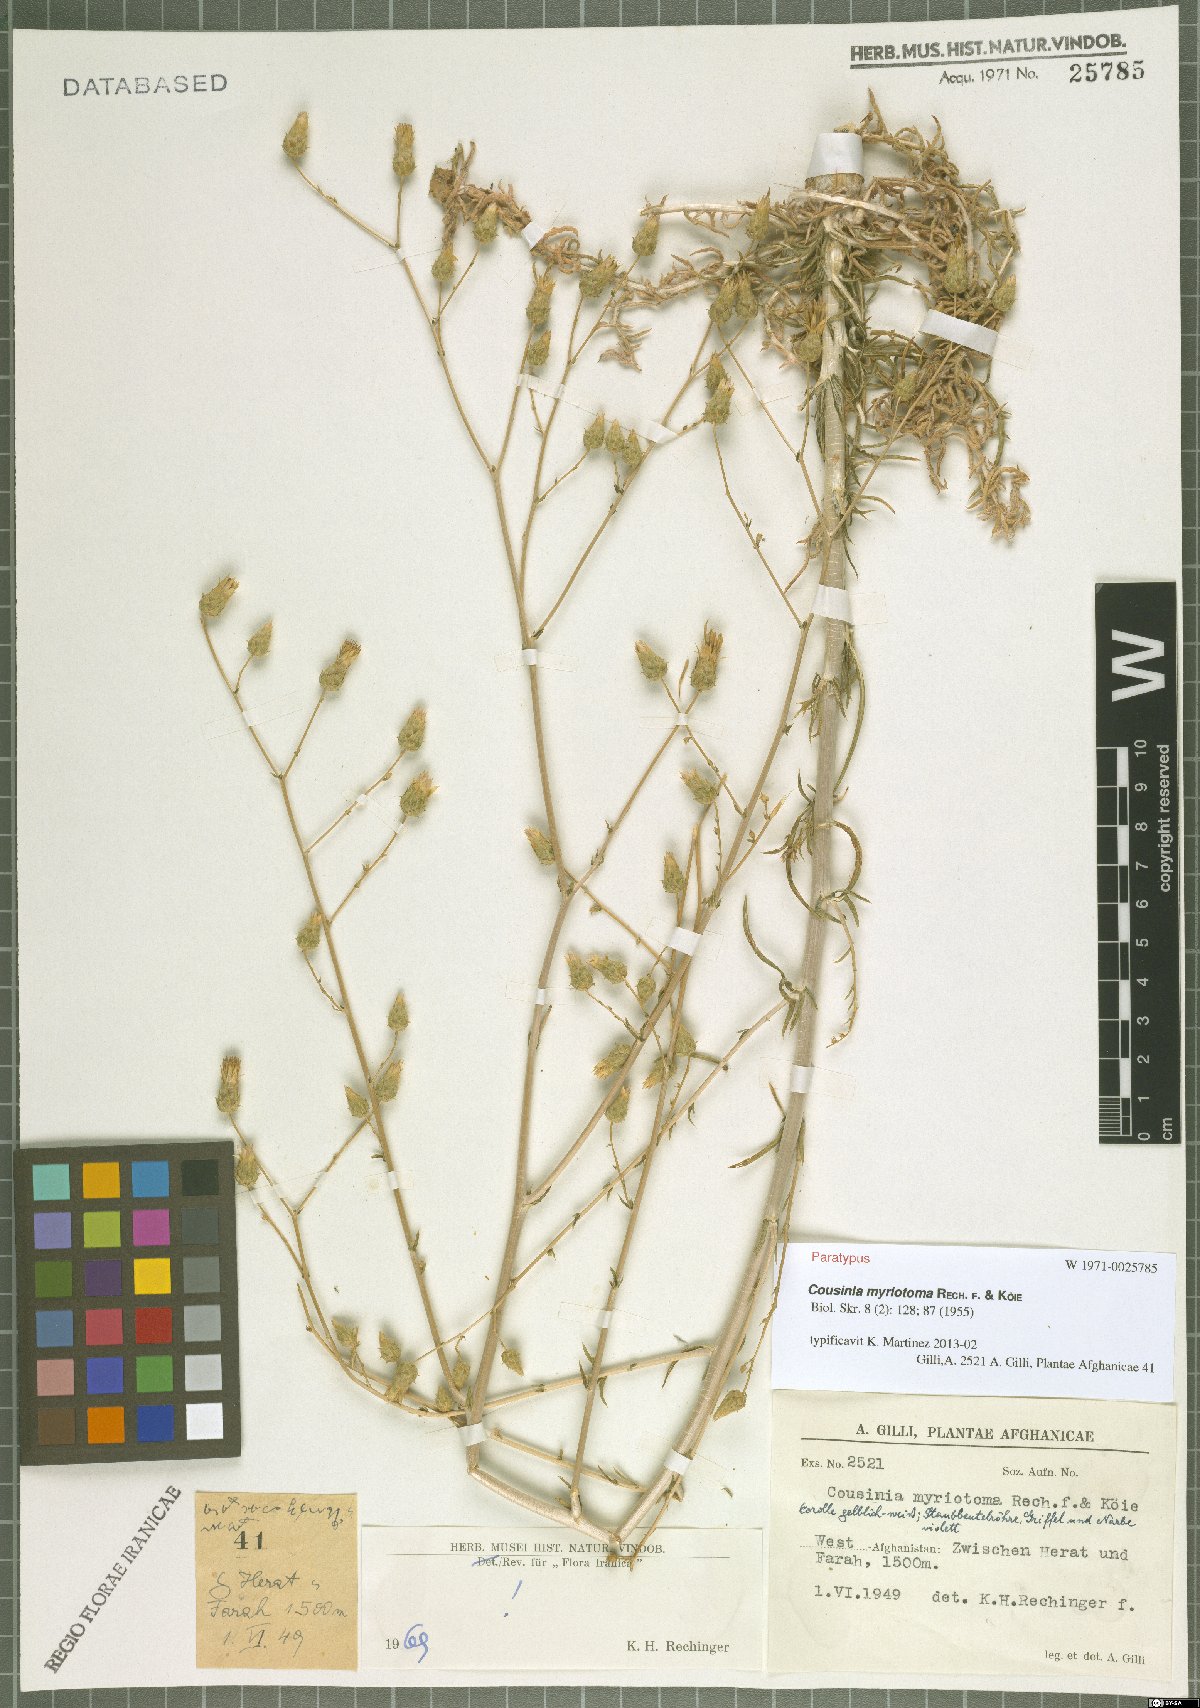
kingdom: Plantae
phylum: Tracheophyta
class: Magnoliopsida
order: Asterales
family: Asteraceae
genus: Cousinia
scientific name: Cousinia myriotoma
